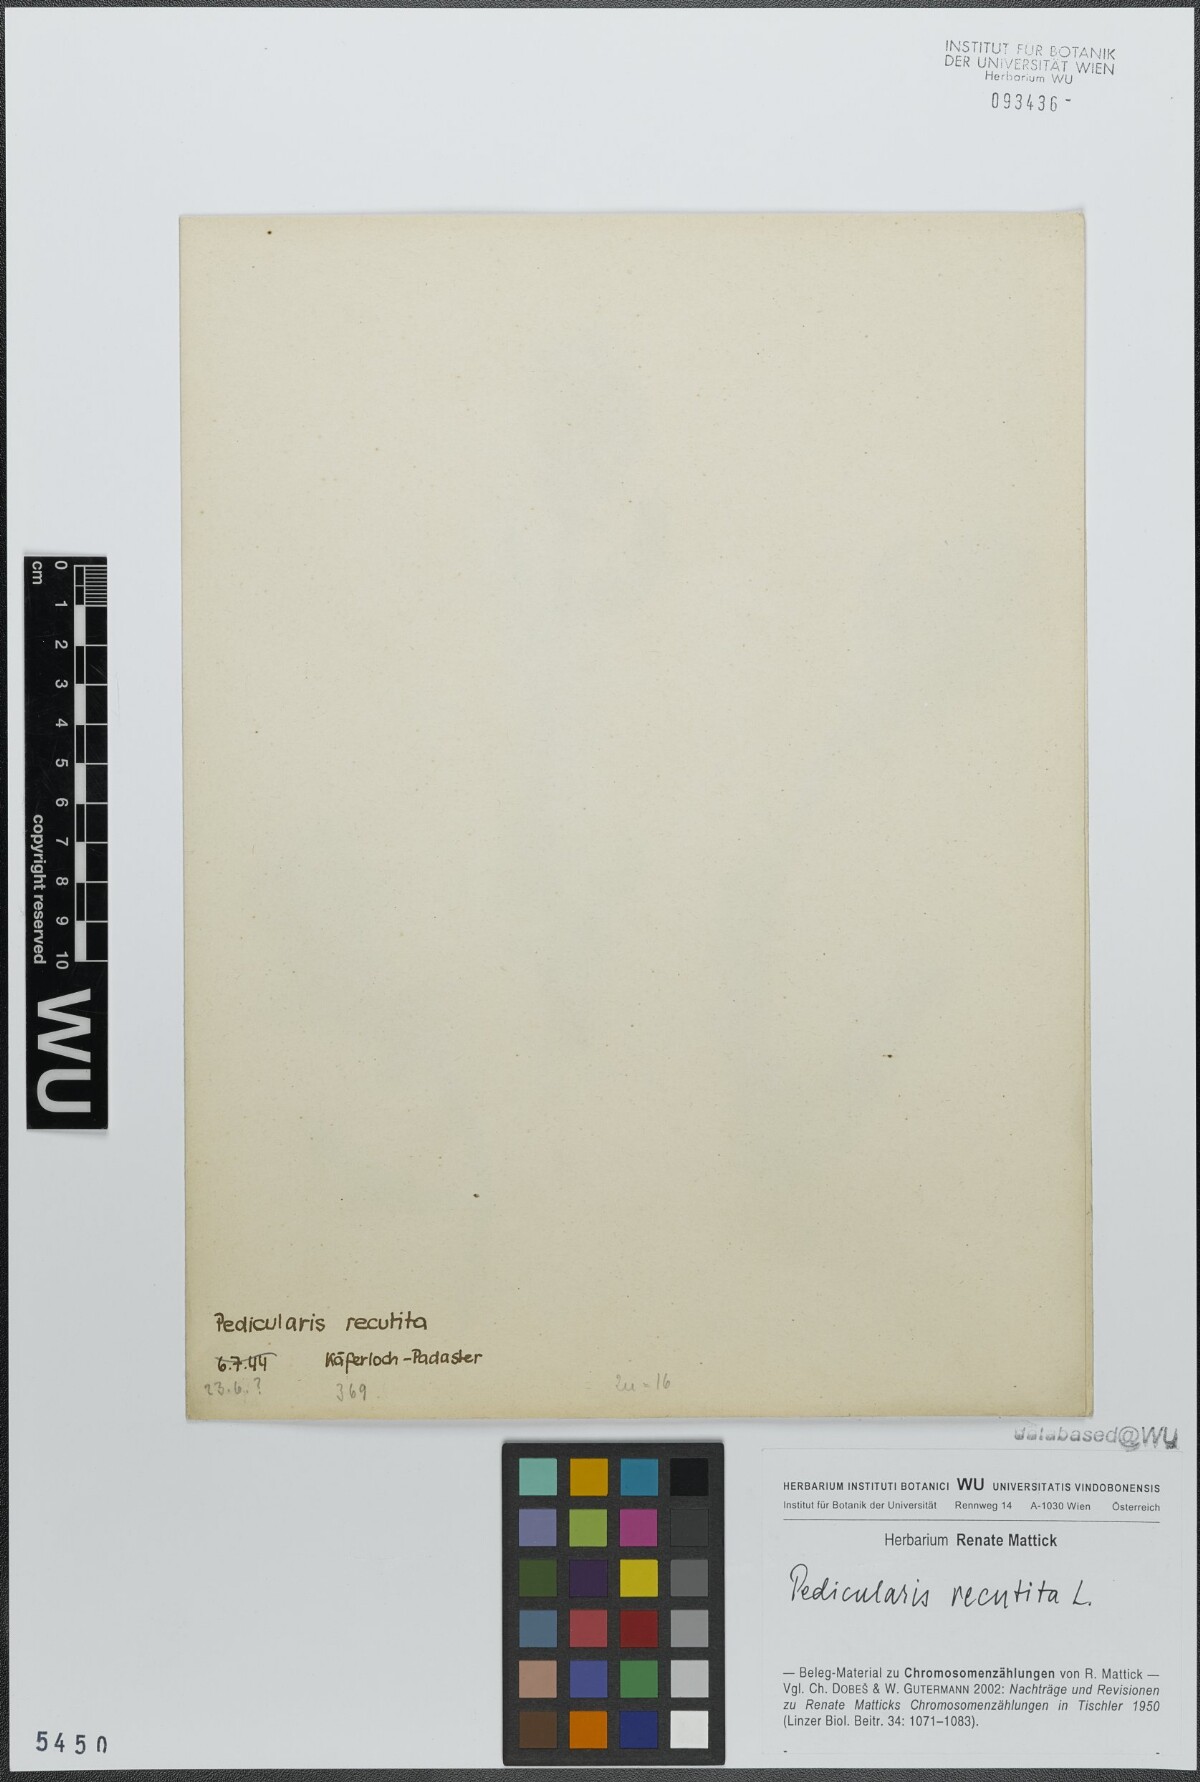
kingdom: Plantae
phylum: Tracheophyta
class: Magnoliopsida
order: Lamiales
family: Orobanchaceae
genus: Pedicularis
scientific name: Pedicularis recutita
